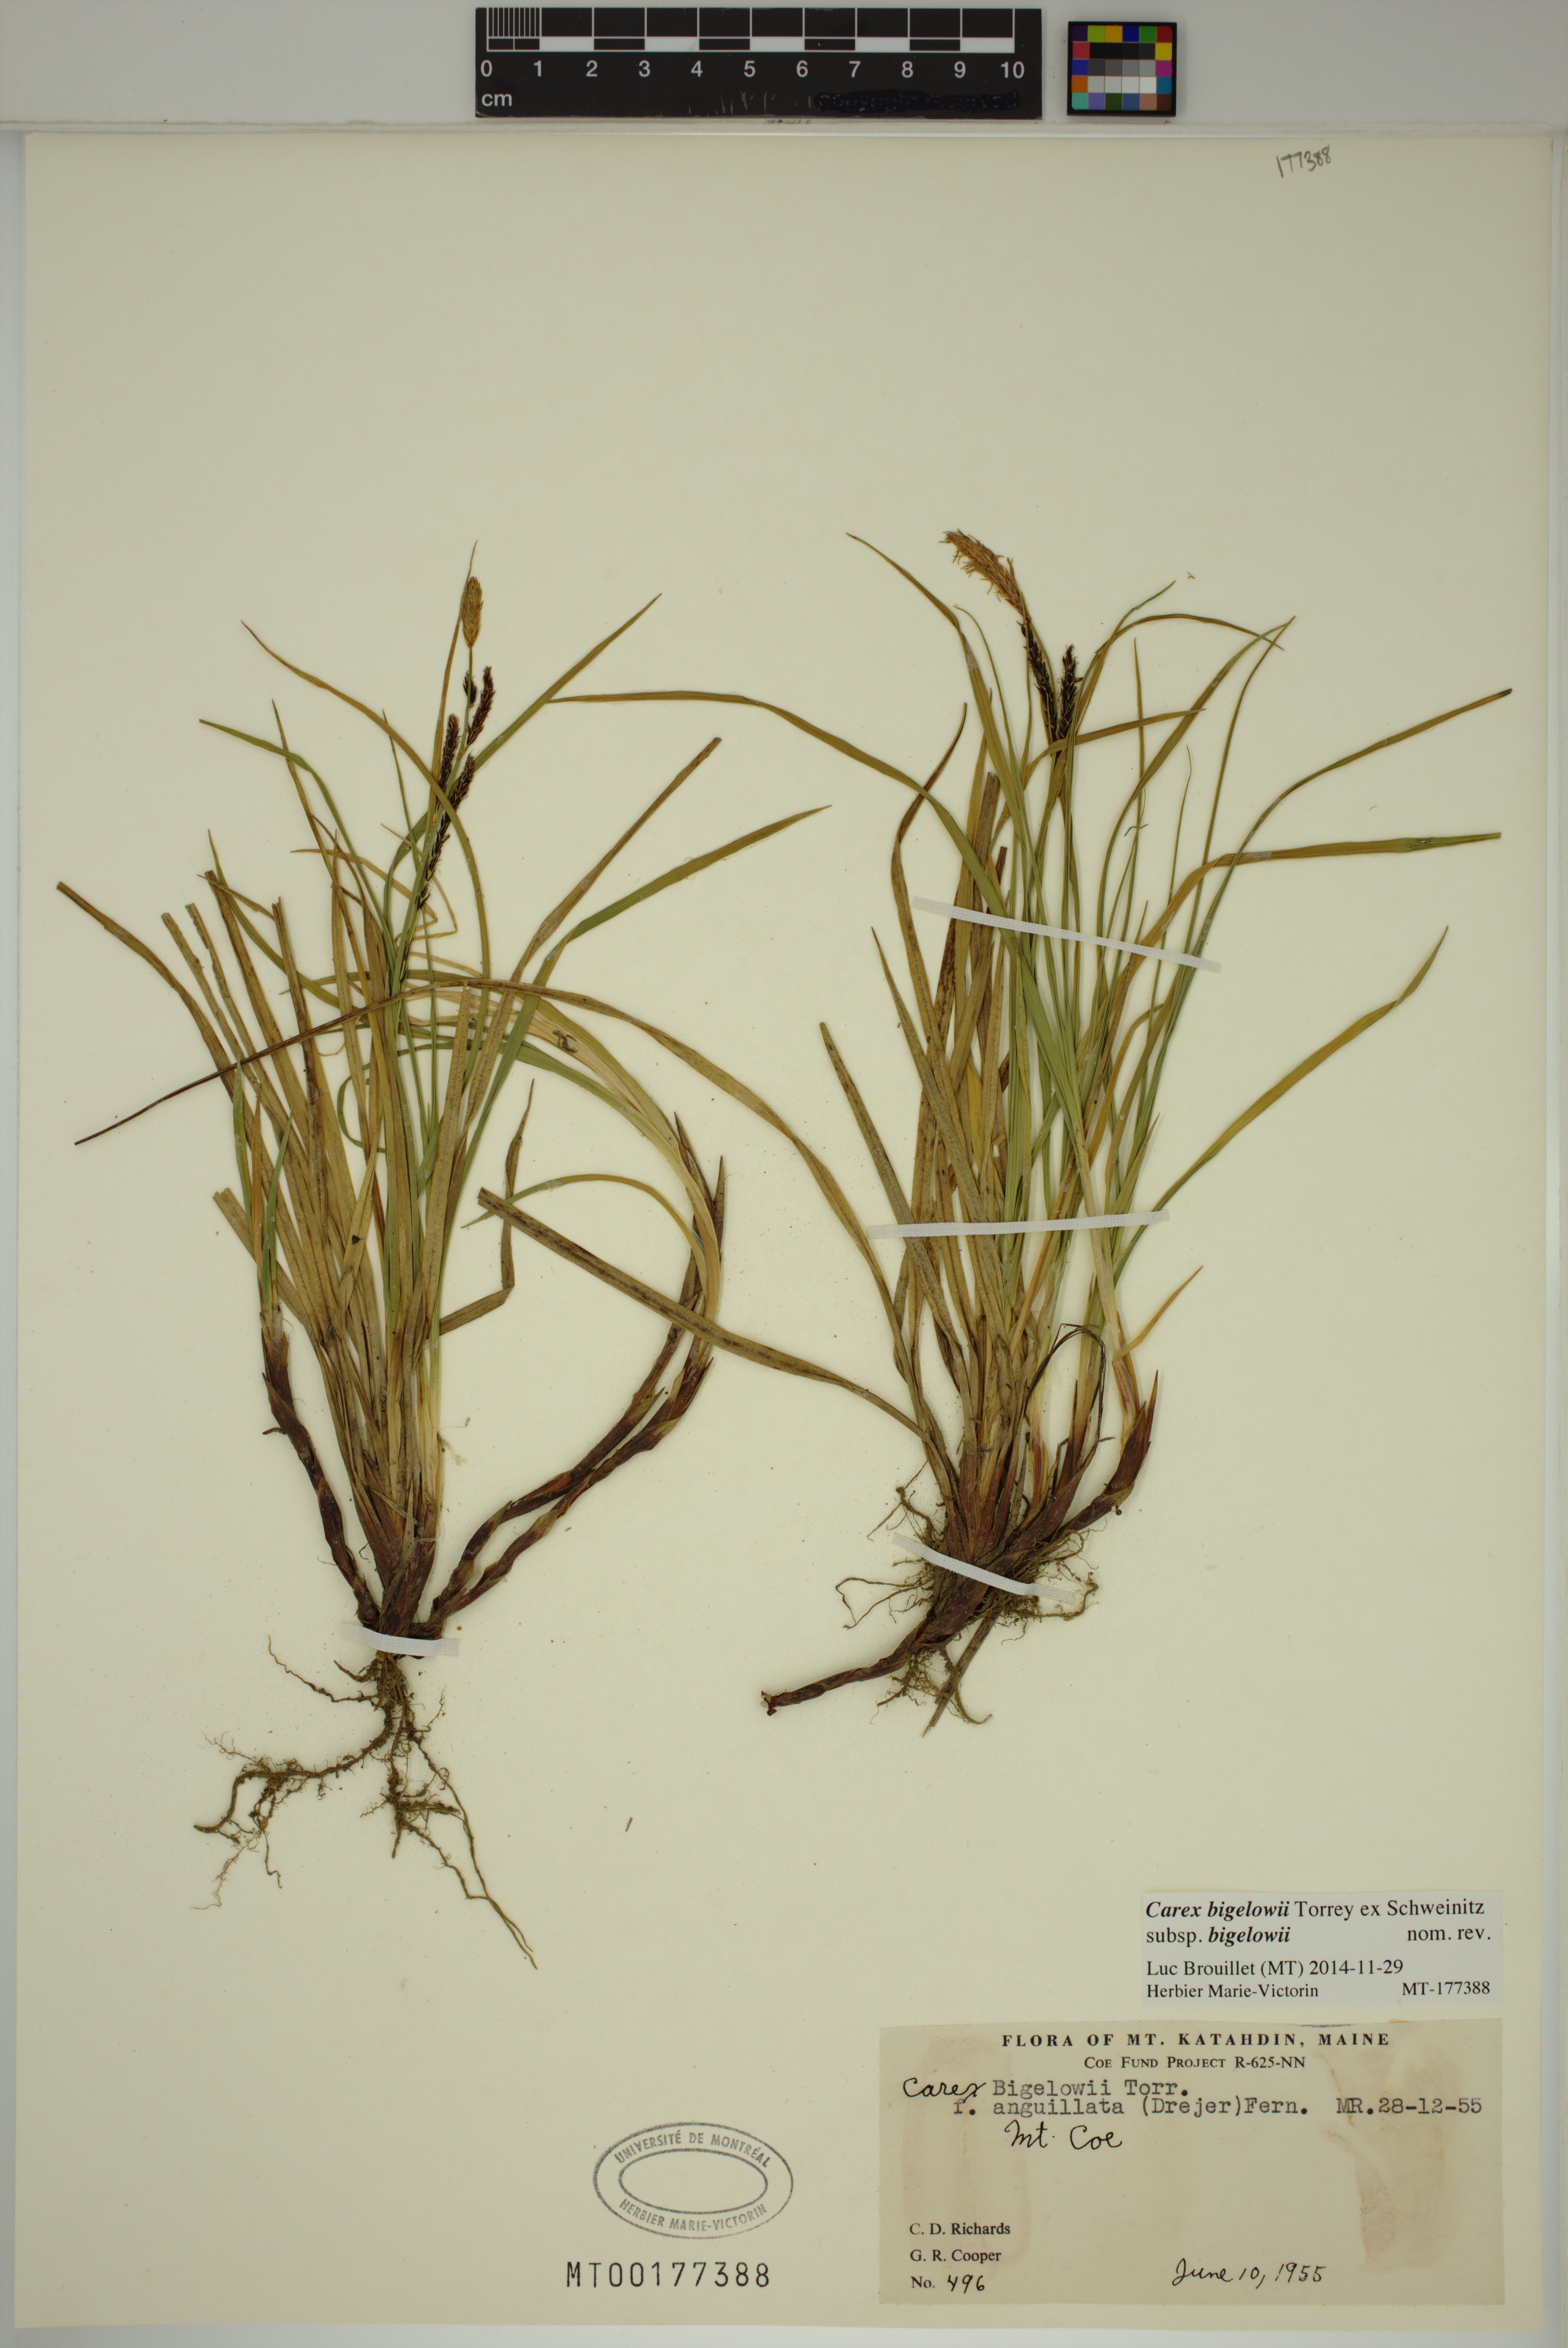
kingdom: Plantae
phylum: Tracheophyta
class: Liliopsida
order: Poales
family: Cyperaceae
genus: Carex
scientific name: Carex bigelowii
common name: Stiff sedge
